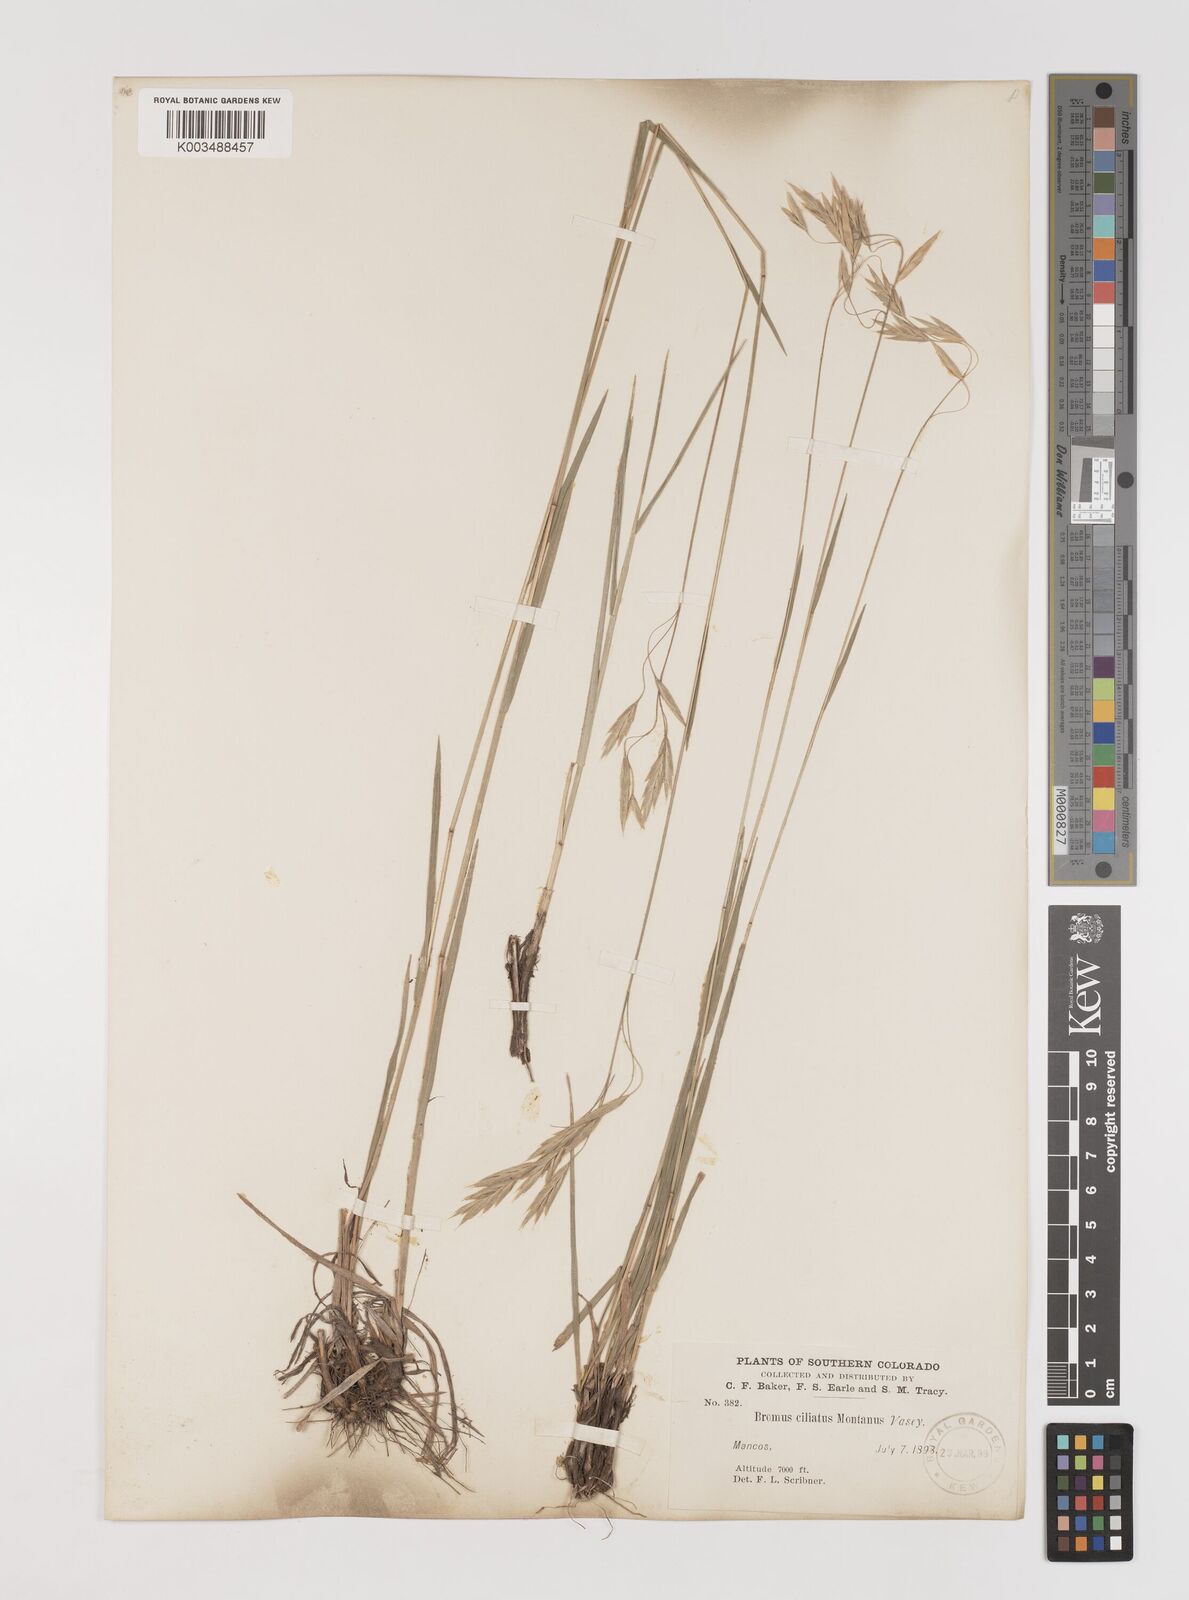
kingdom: Plantae
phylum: Tracheophyta
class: Liliopsida
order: Poales
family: Poaceae
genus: Bromus
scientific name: Bromus ciliatus
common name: Fringe brome
